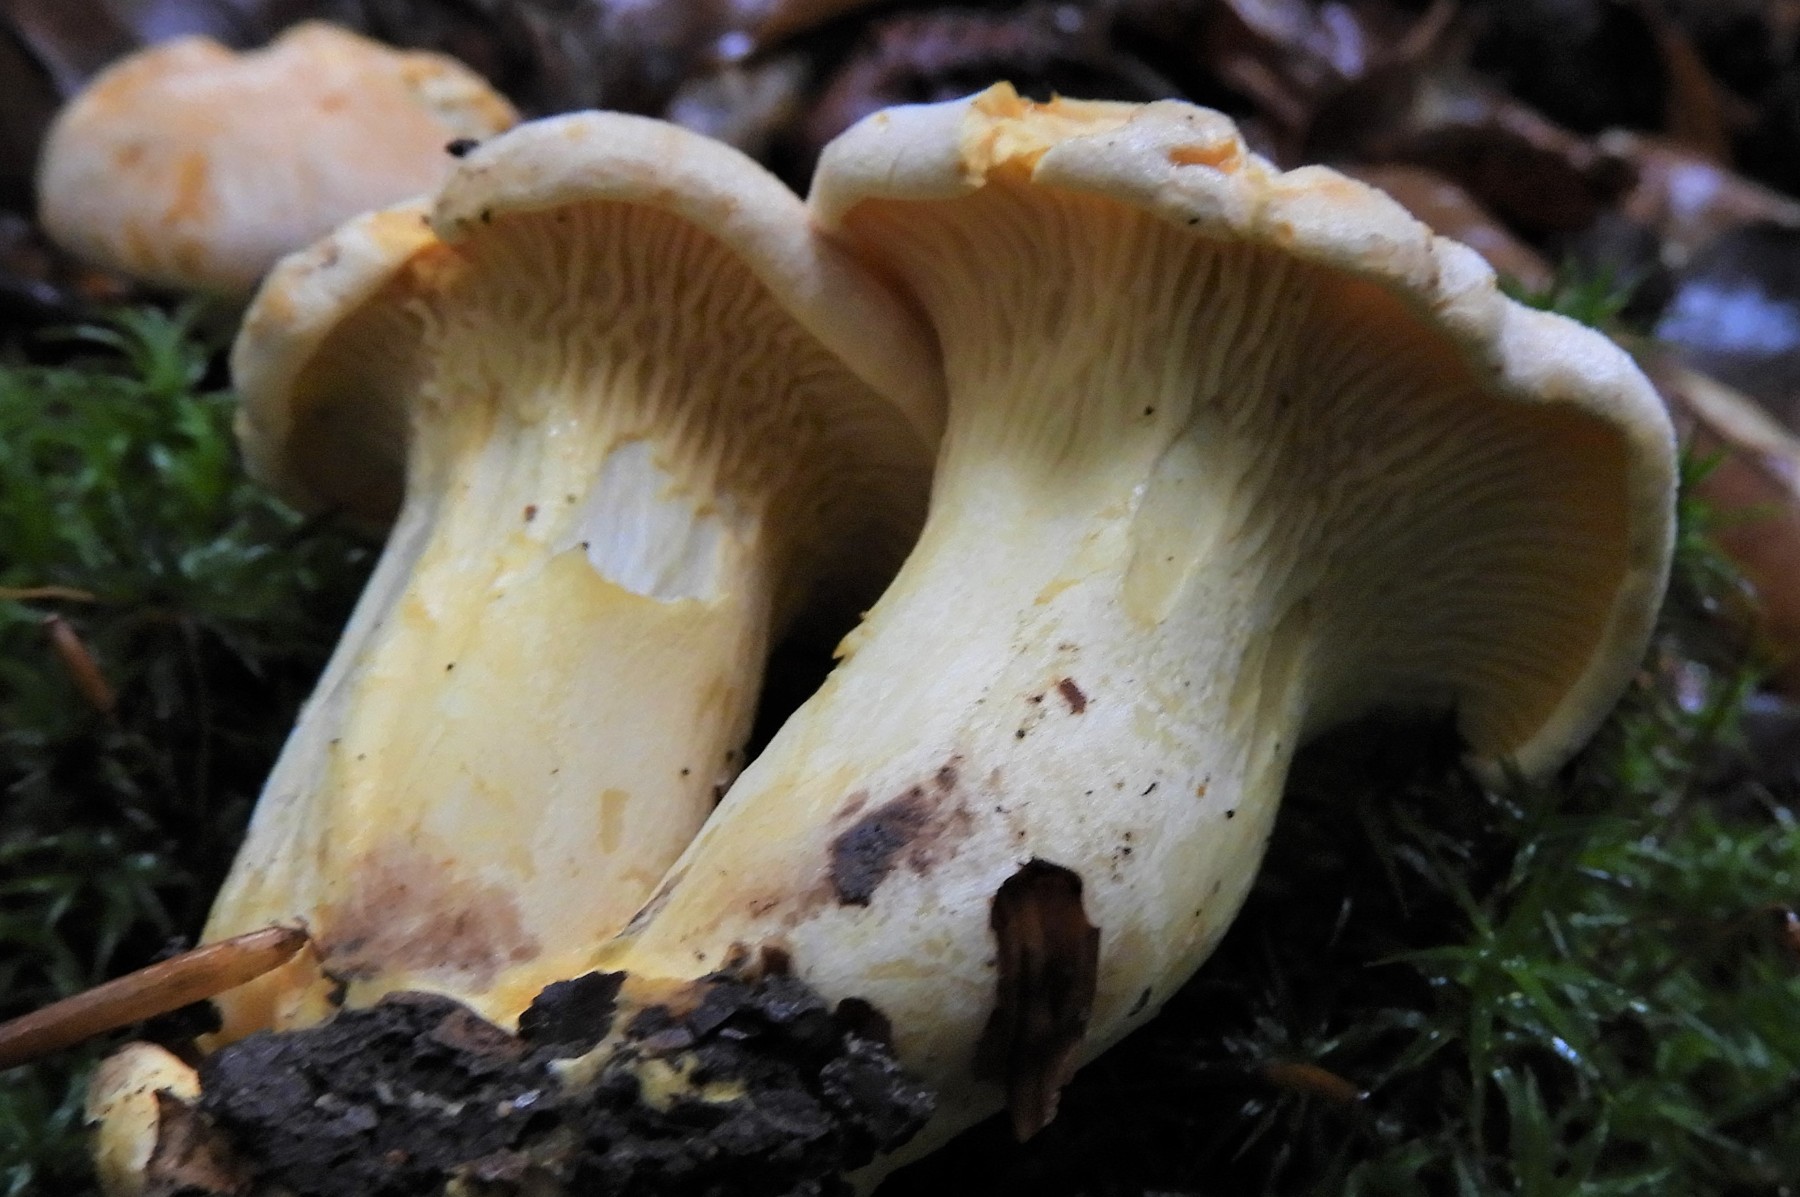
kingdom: Fungi
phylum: Basidiomycota
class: Agaricomycetes
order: Cantharellales
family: Hydnaceae
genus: Cantharellus
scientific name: Cantharellus pallens
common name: bleg kantarel
